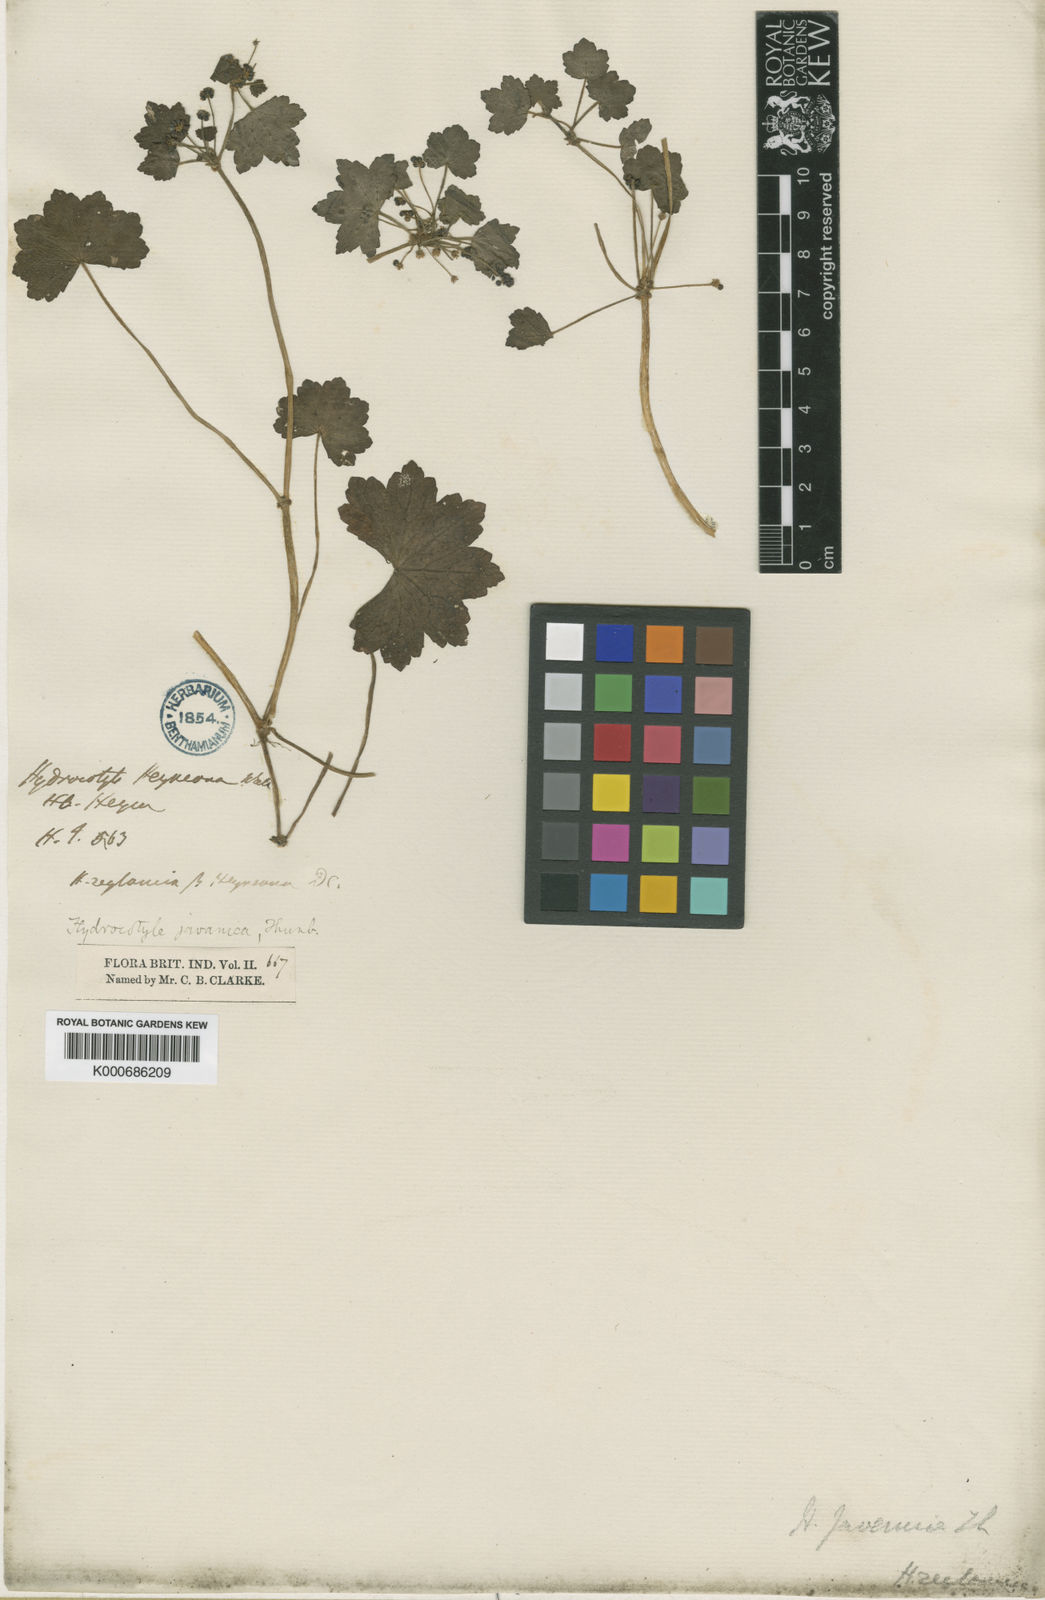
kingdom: Plantae
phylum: Tracheophyta
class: Magnoliopsida
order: Apiales
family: Araliaceae
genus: Hydrocotyle
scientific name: Hydrocotyle javanica
